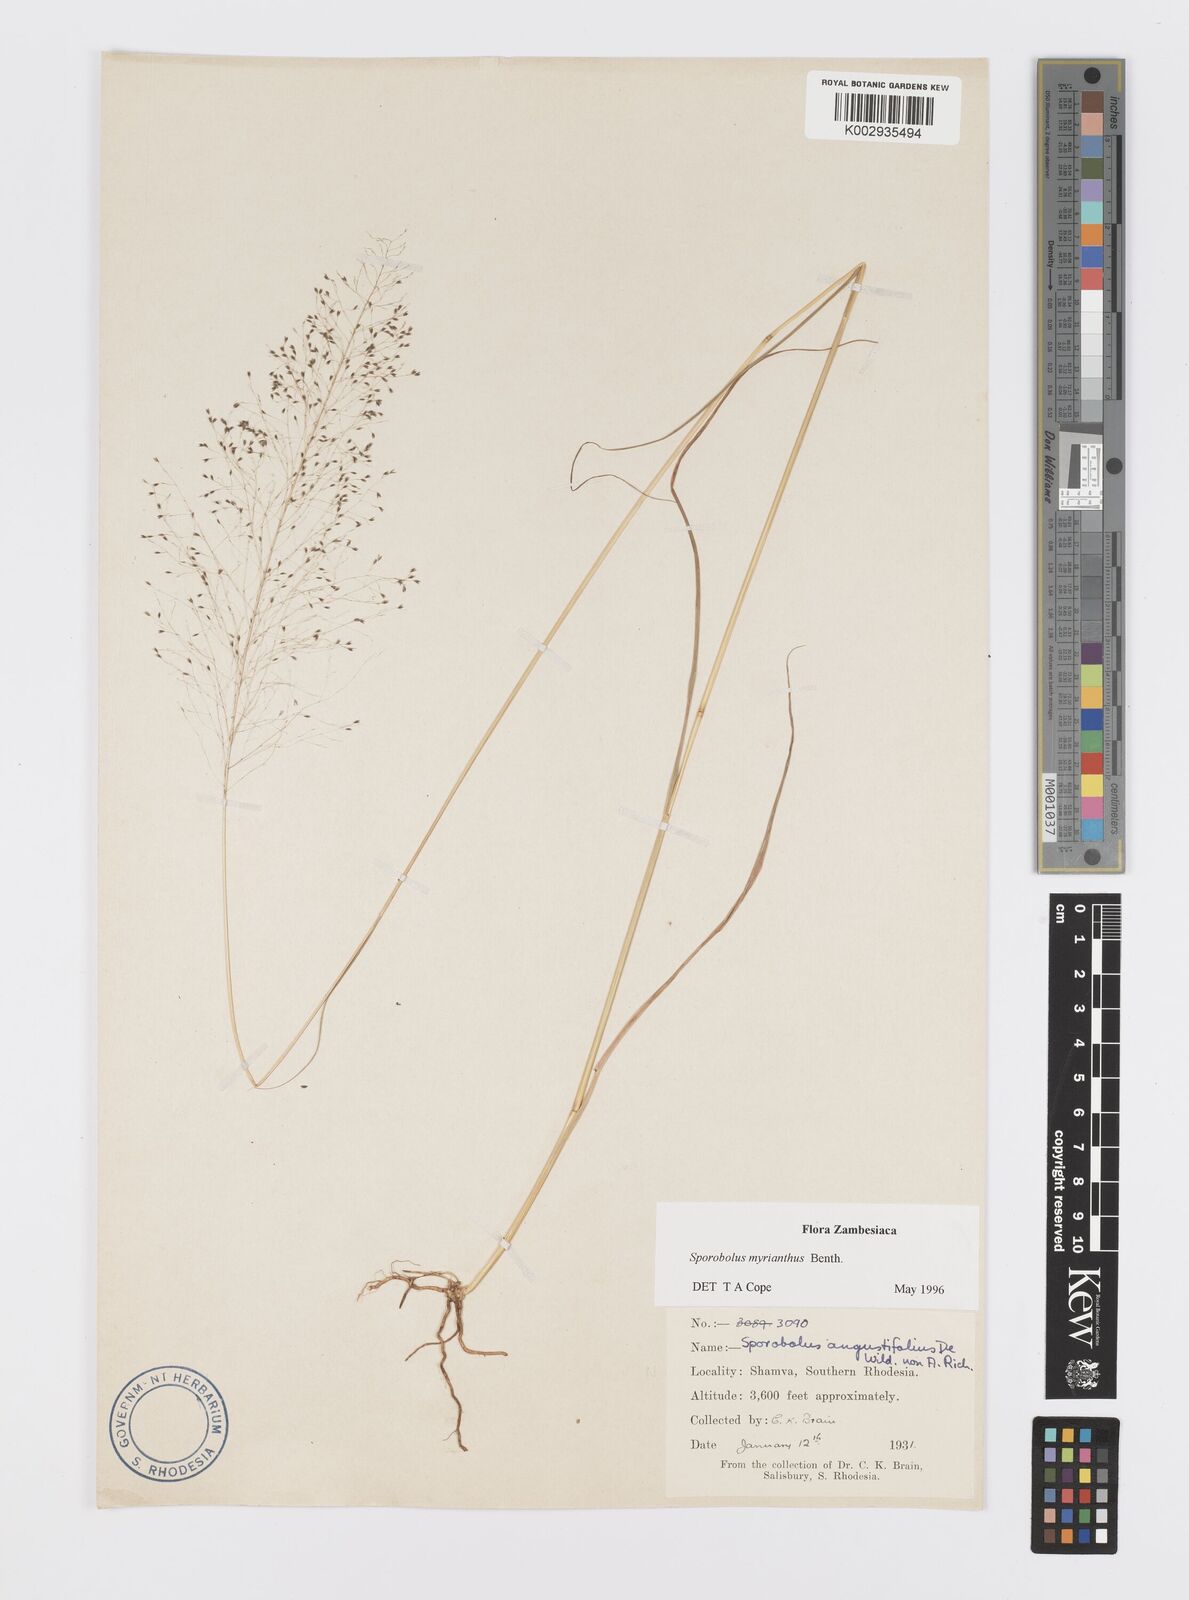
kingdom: Plantae
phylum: Tracheophyta
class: Liliopsida
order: Poales
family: Poaceae
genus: Sporobolus
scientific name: Sporobolus myrianthus
